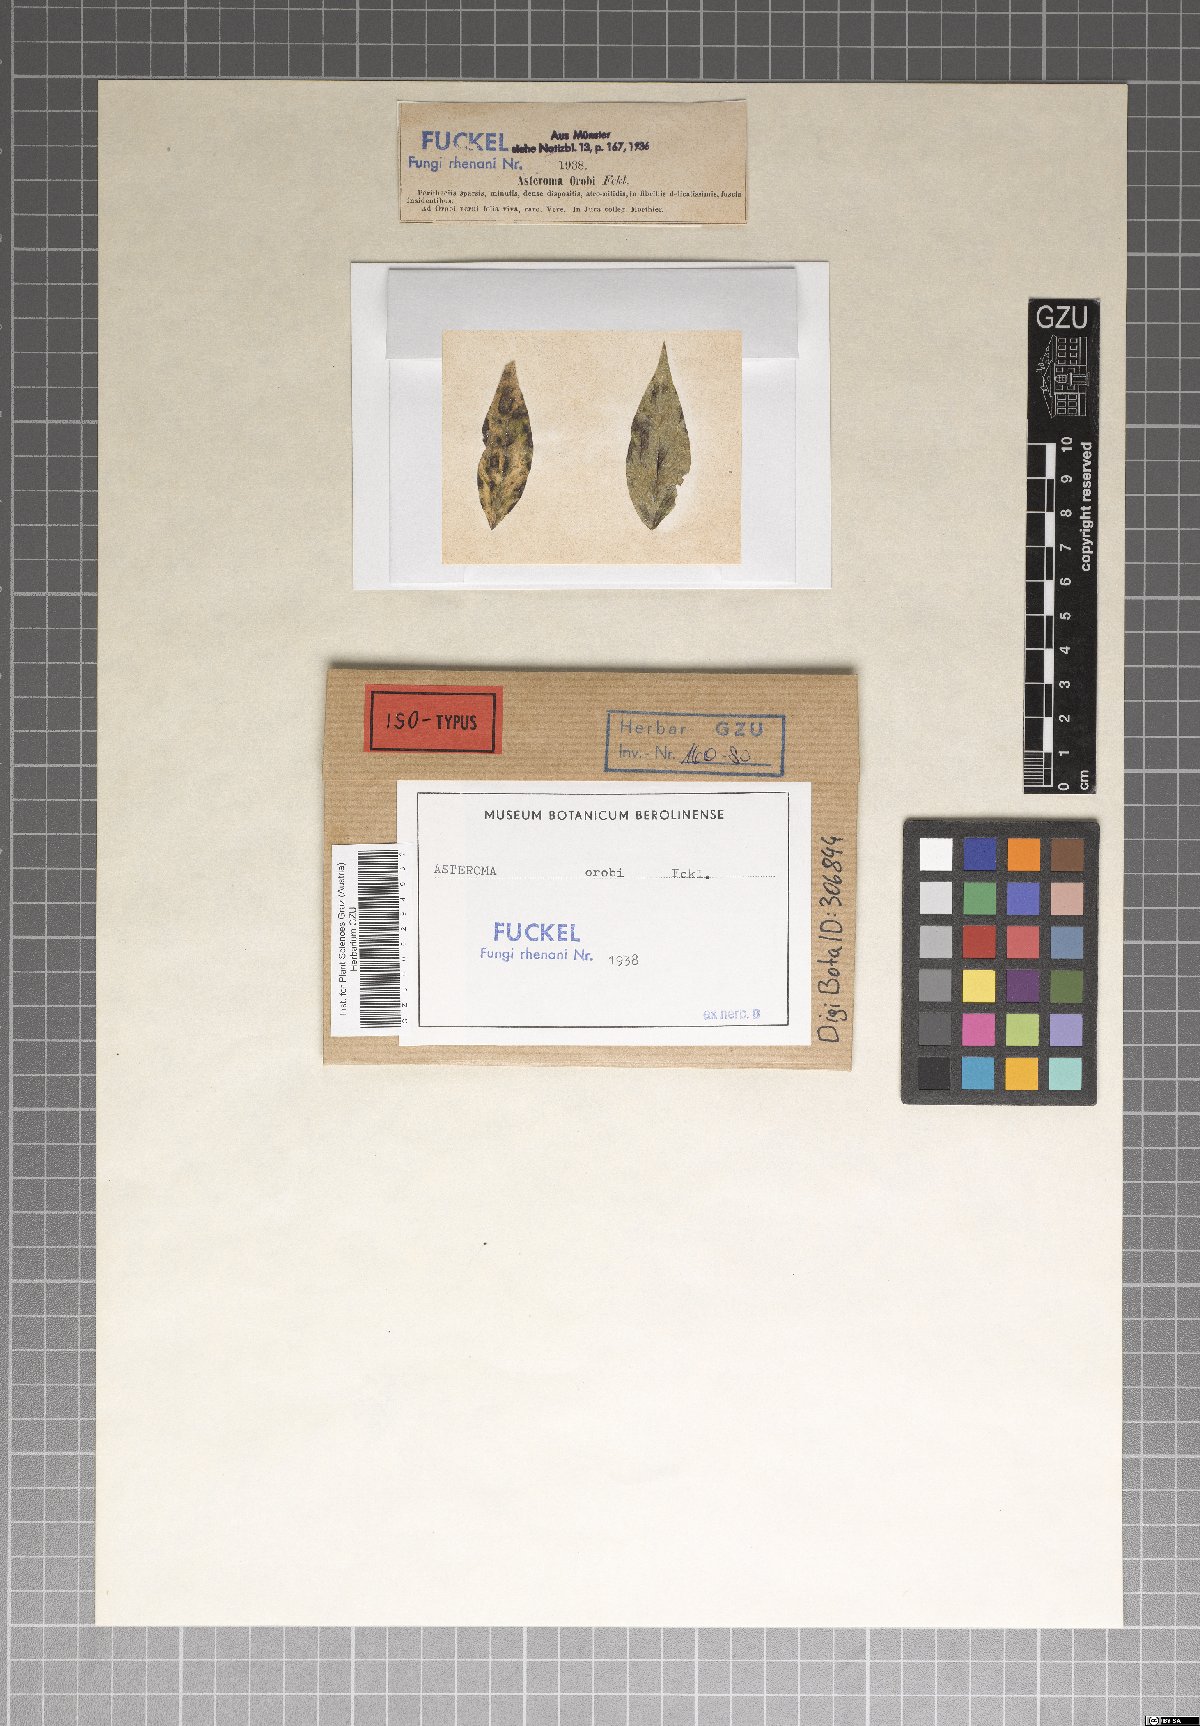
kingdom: Fungi
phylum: Ascomycota
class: Sordariomycetes
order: Diaporthales
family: Gnomoniaceae
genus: Asteroma
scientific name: Asteroma
